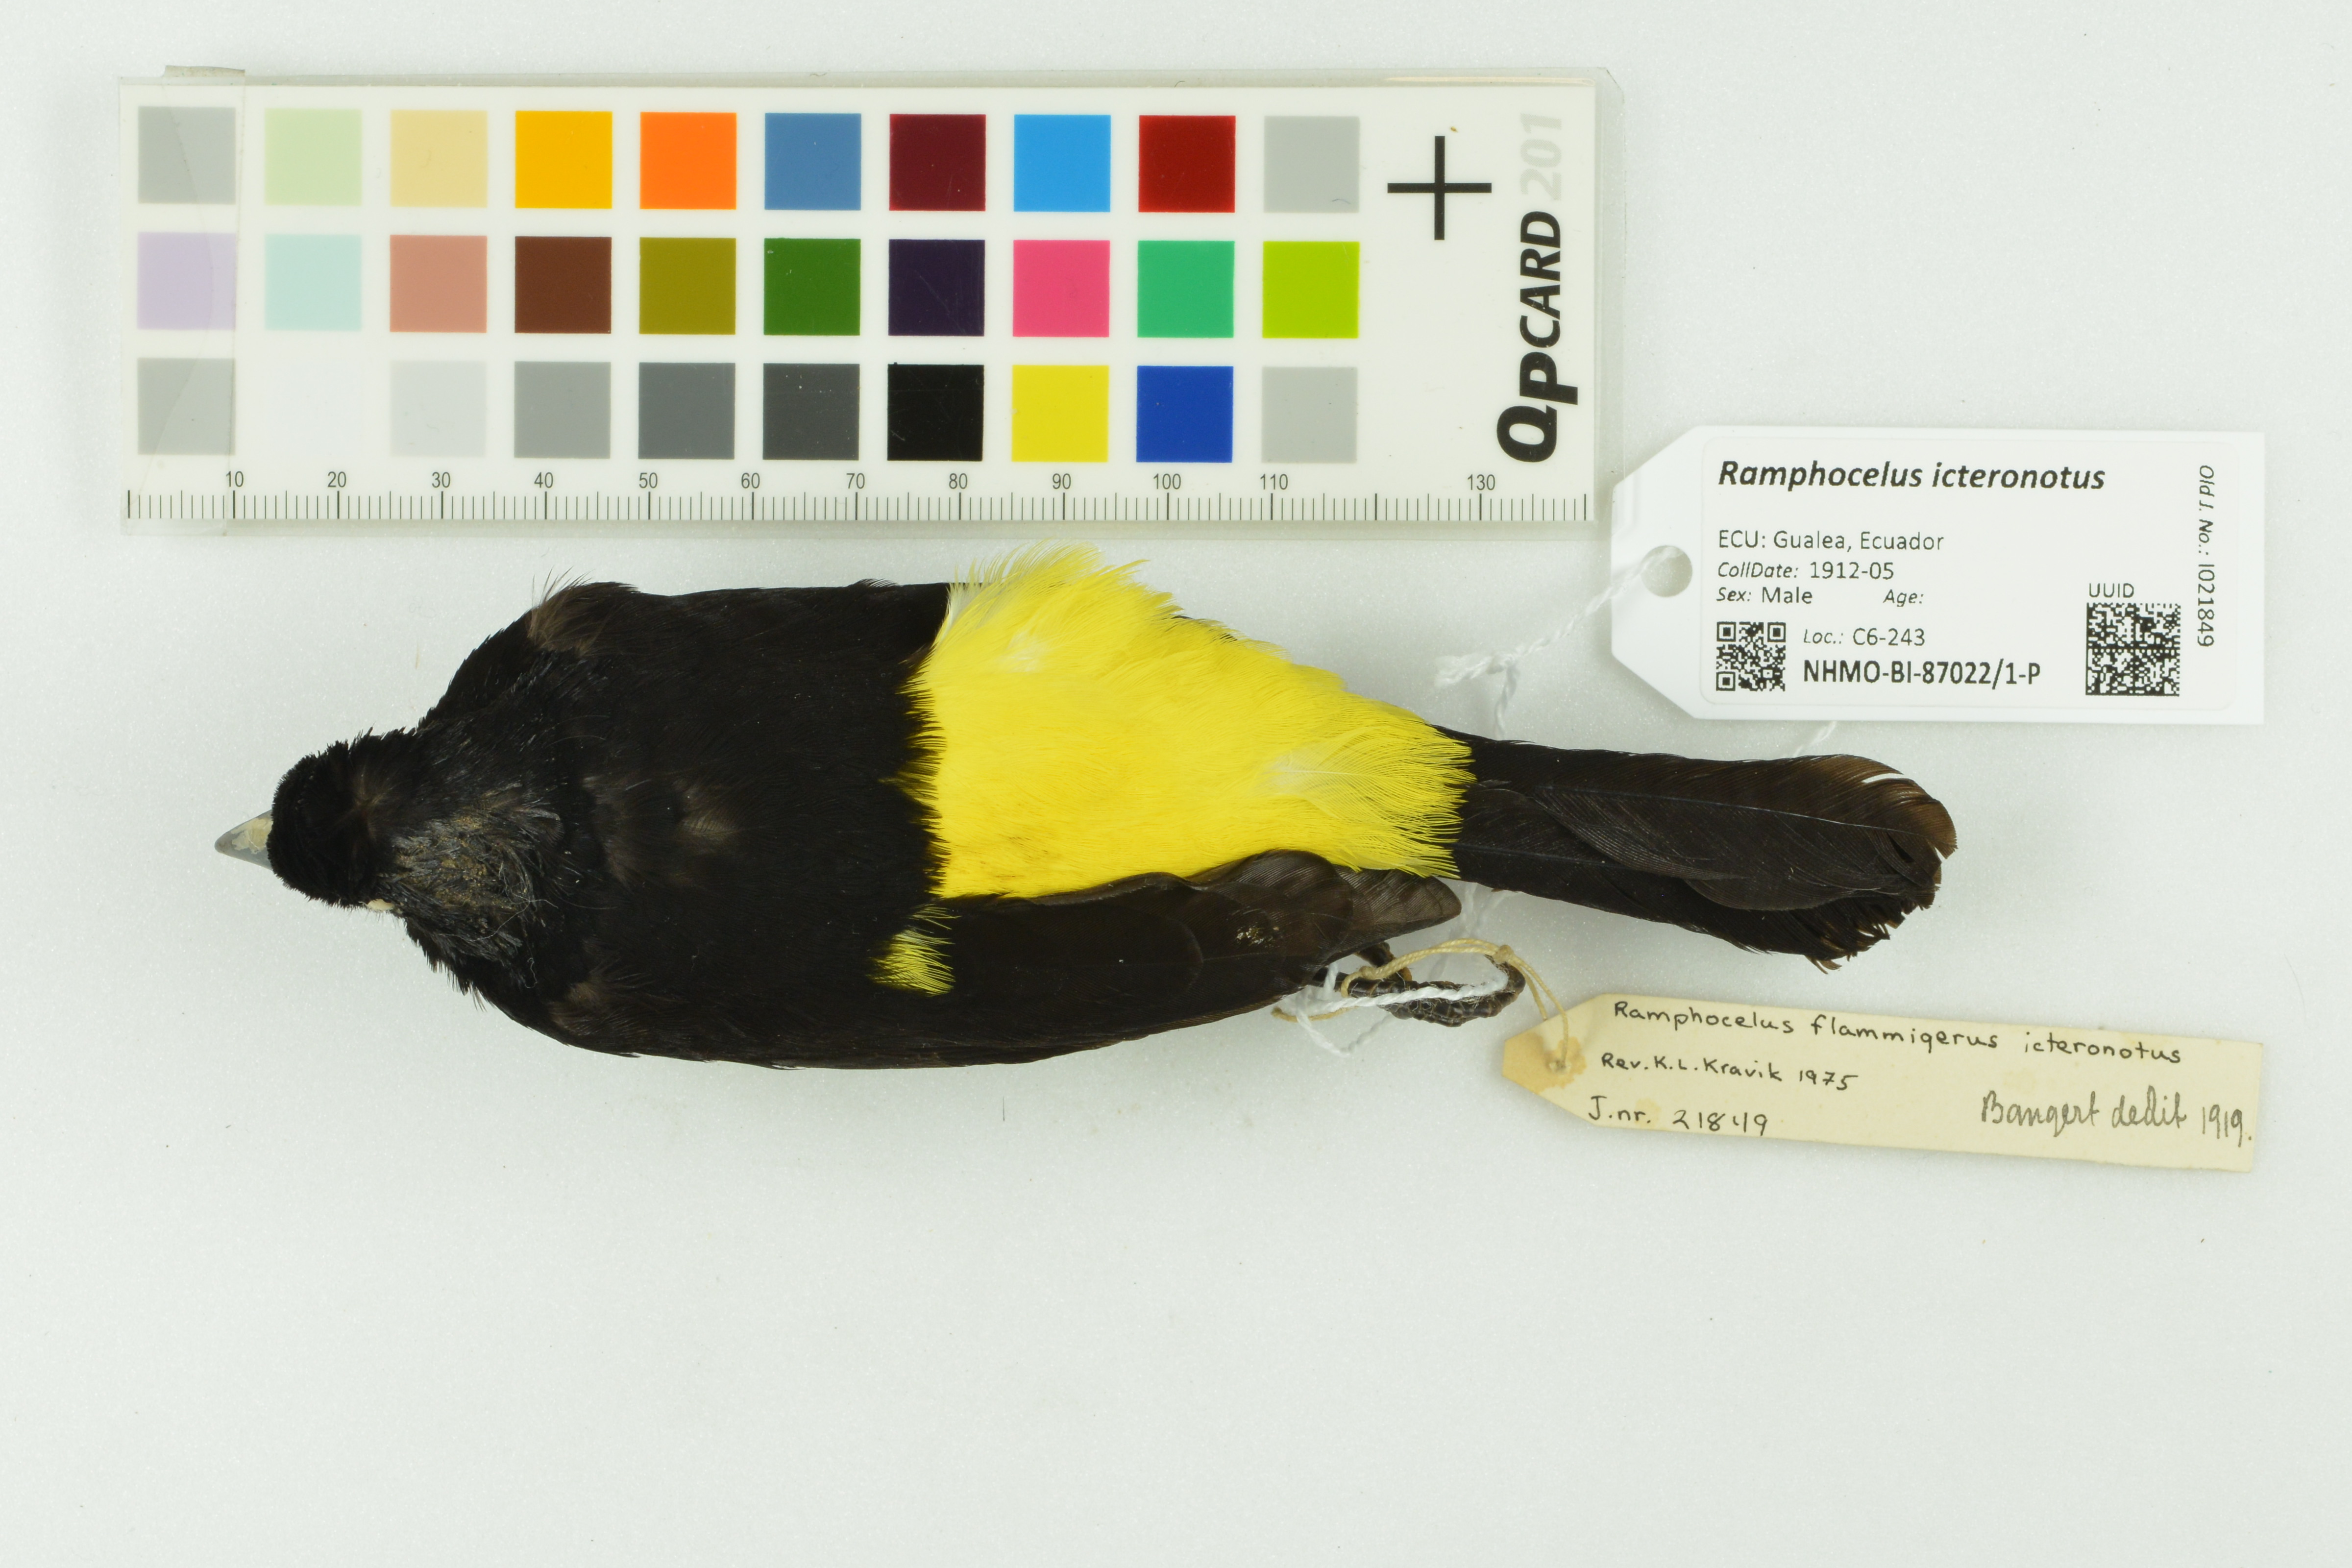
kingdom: Animalia
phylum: Chordata
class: Aves
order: Passeriformes
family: Thraupidae
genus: Ramphocelus
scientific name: Ramphocelus icteronotus
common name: Lemon-rumped tanager
